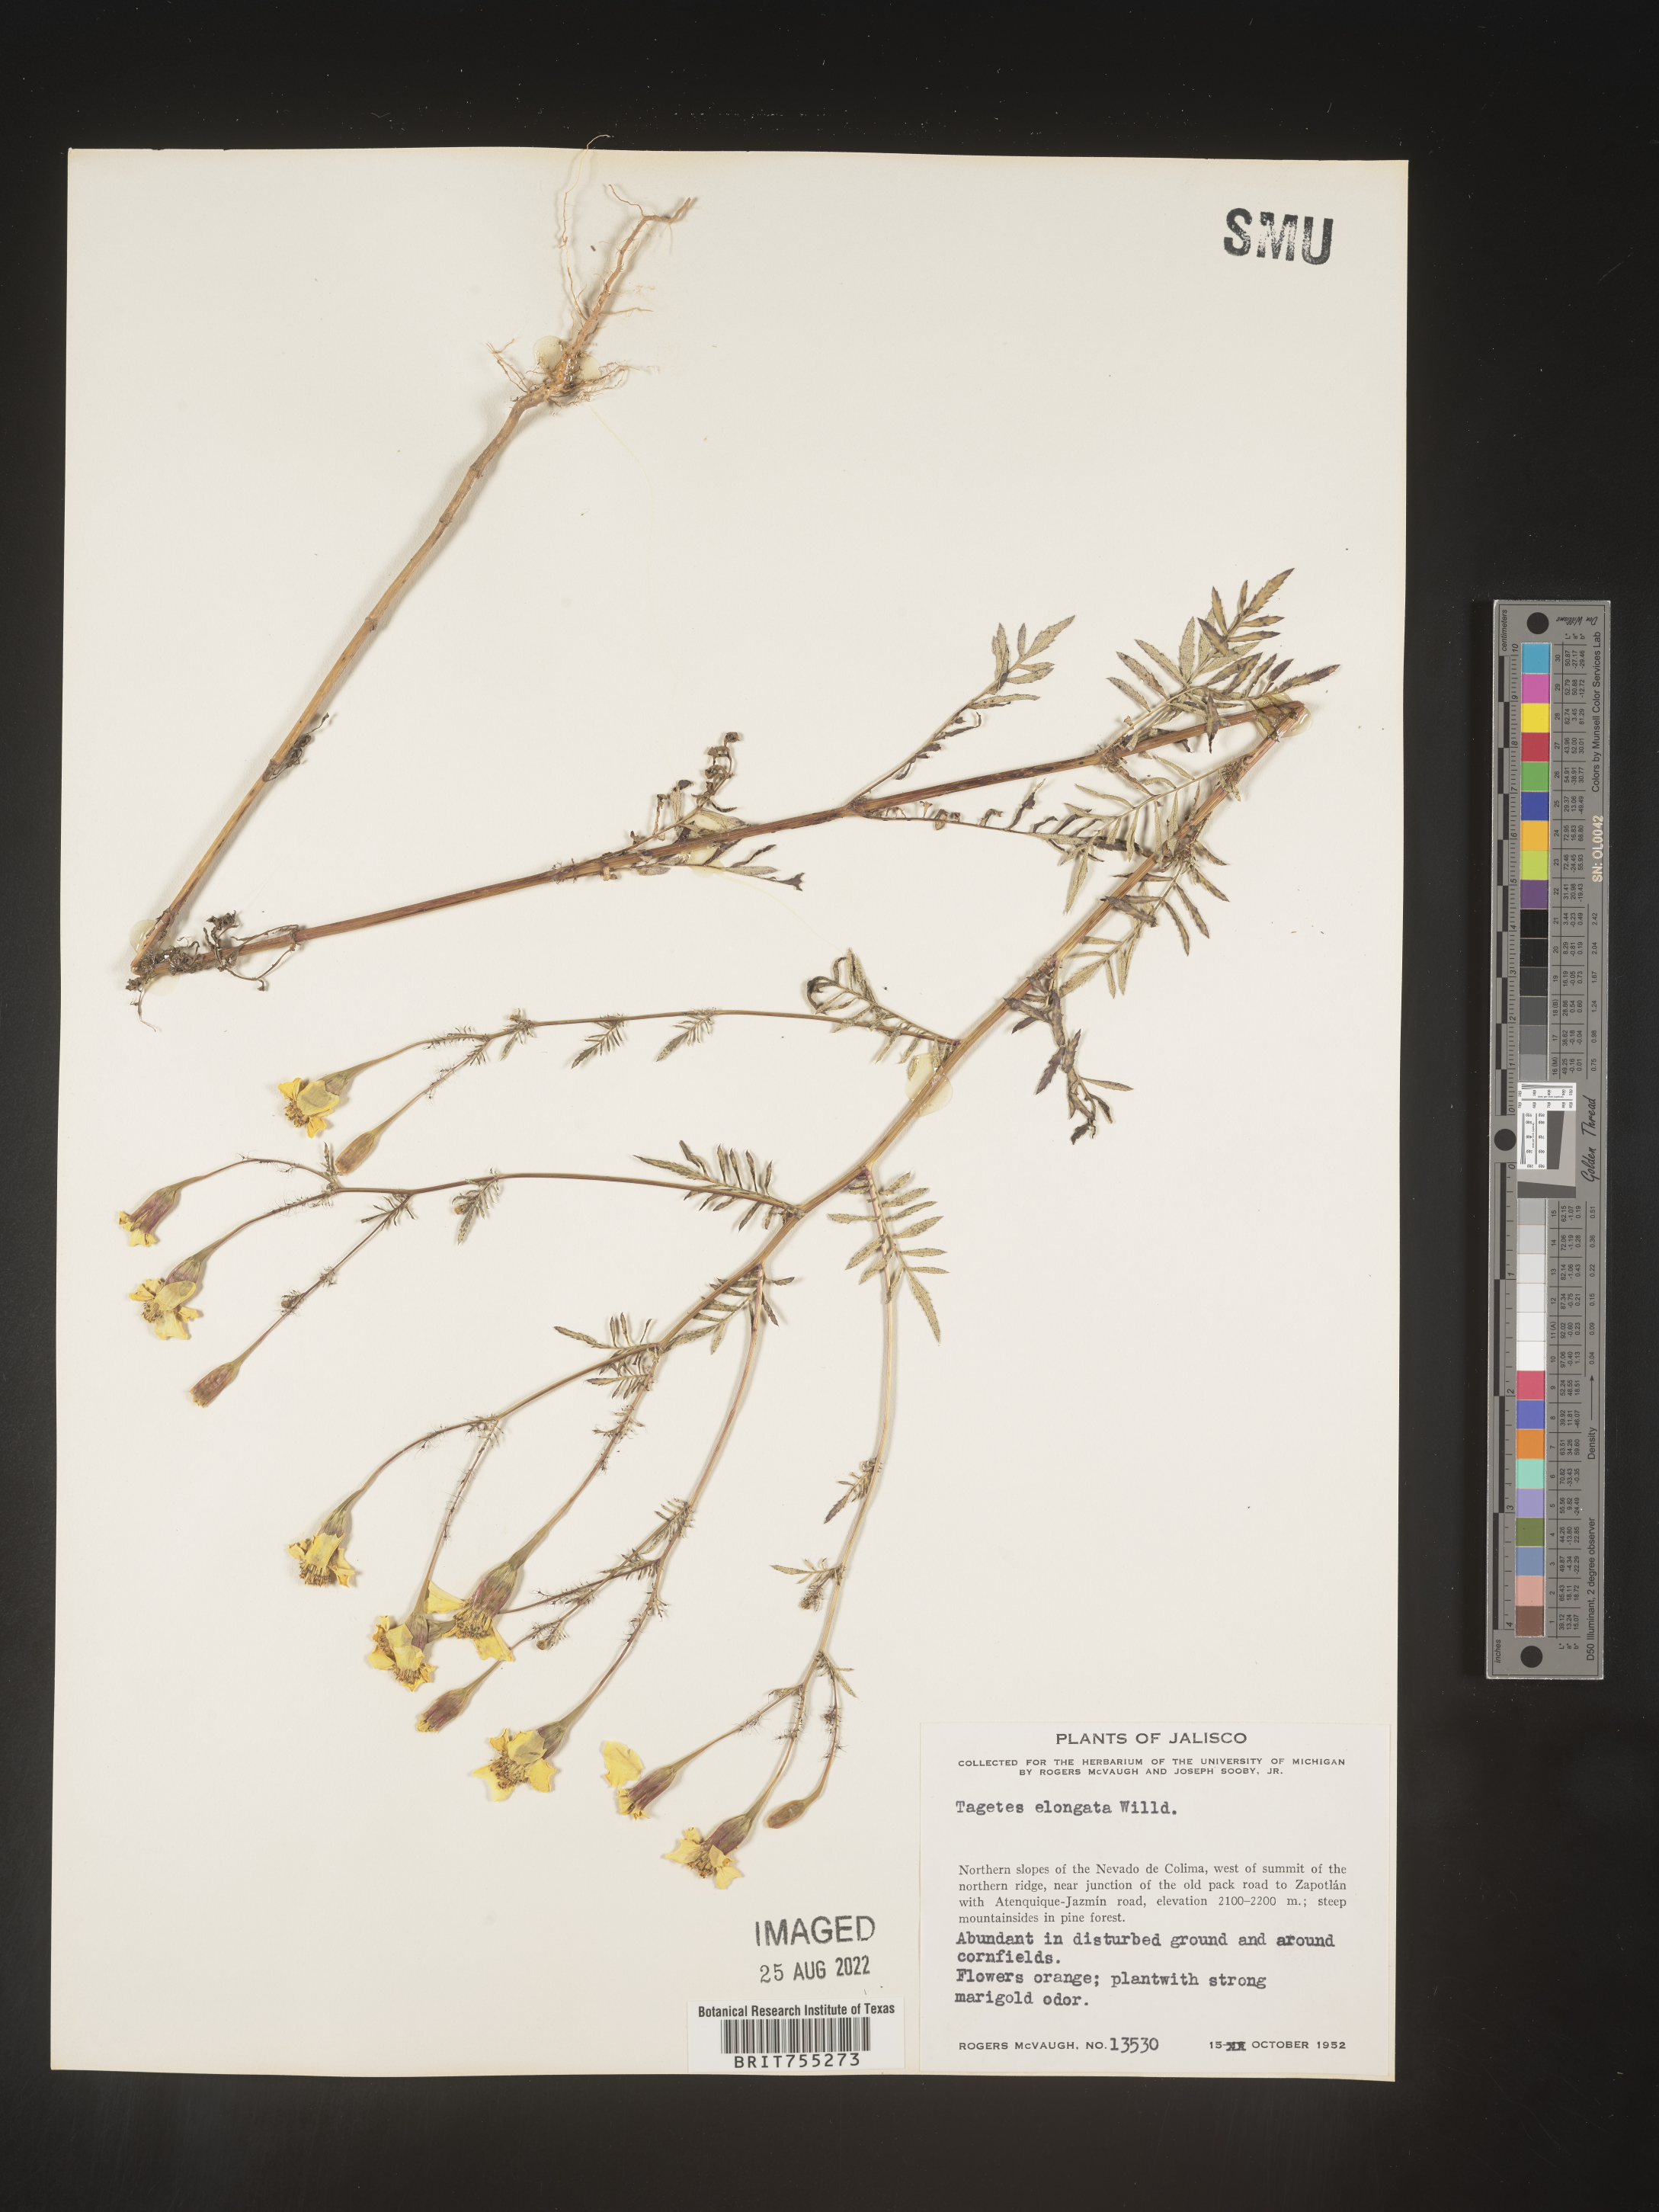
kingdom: Plantae
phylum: Tracheophyta
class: Magnoliopsida
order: Asterales
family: Asteraceae
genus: Tagetes
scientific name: Tagetes
